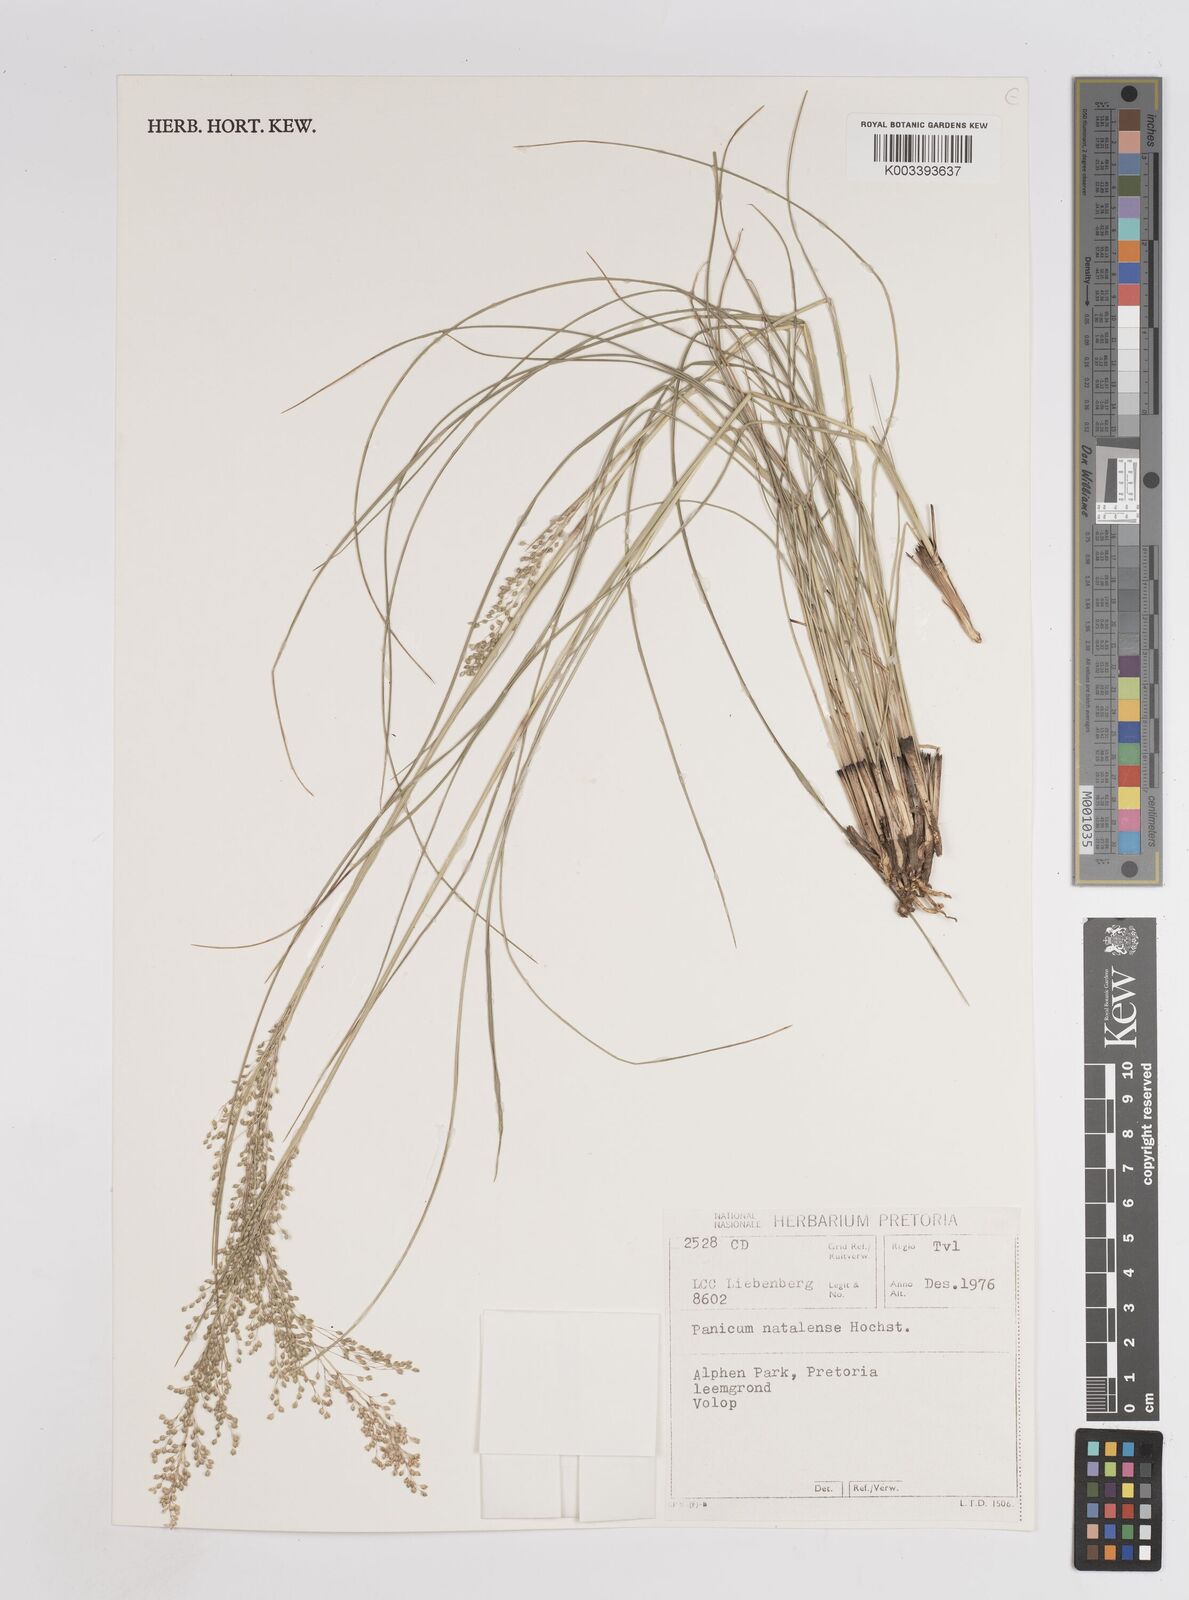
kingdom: Plantae
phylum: Tracheophyta
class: Liliopsida
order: Poales
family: Poaceae
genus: Trichanthecium
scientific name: Trichanthecium natalense
